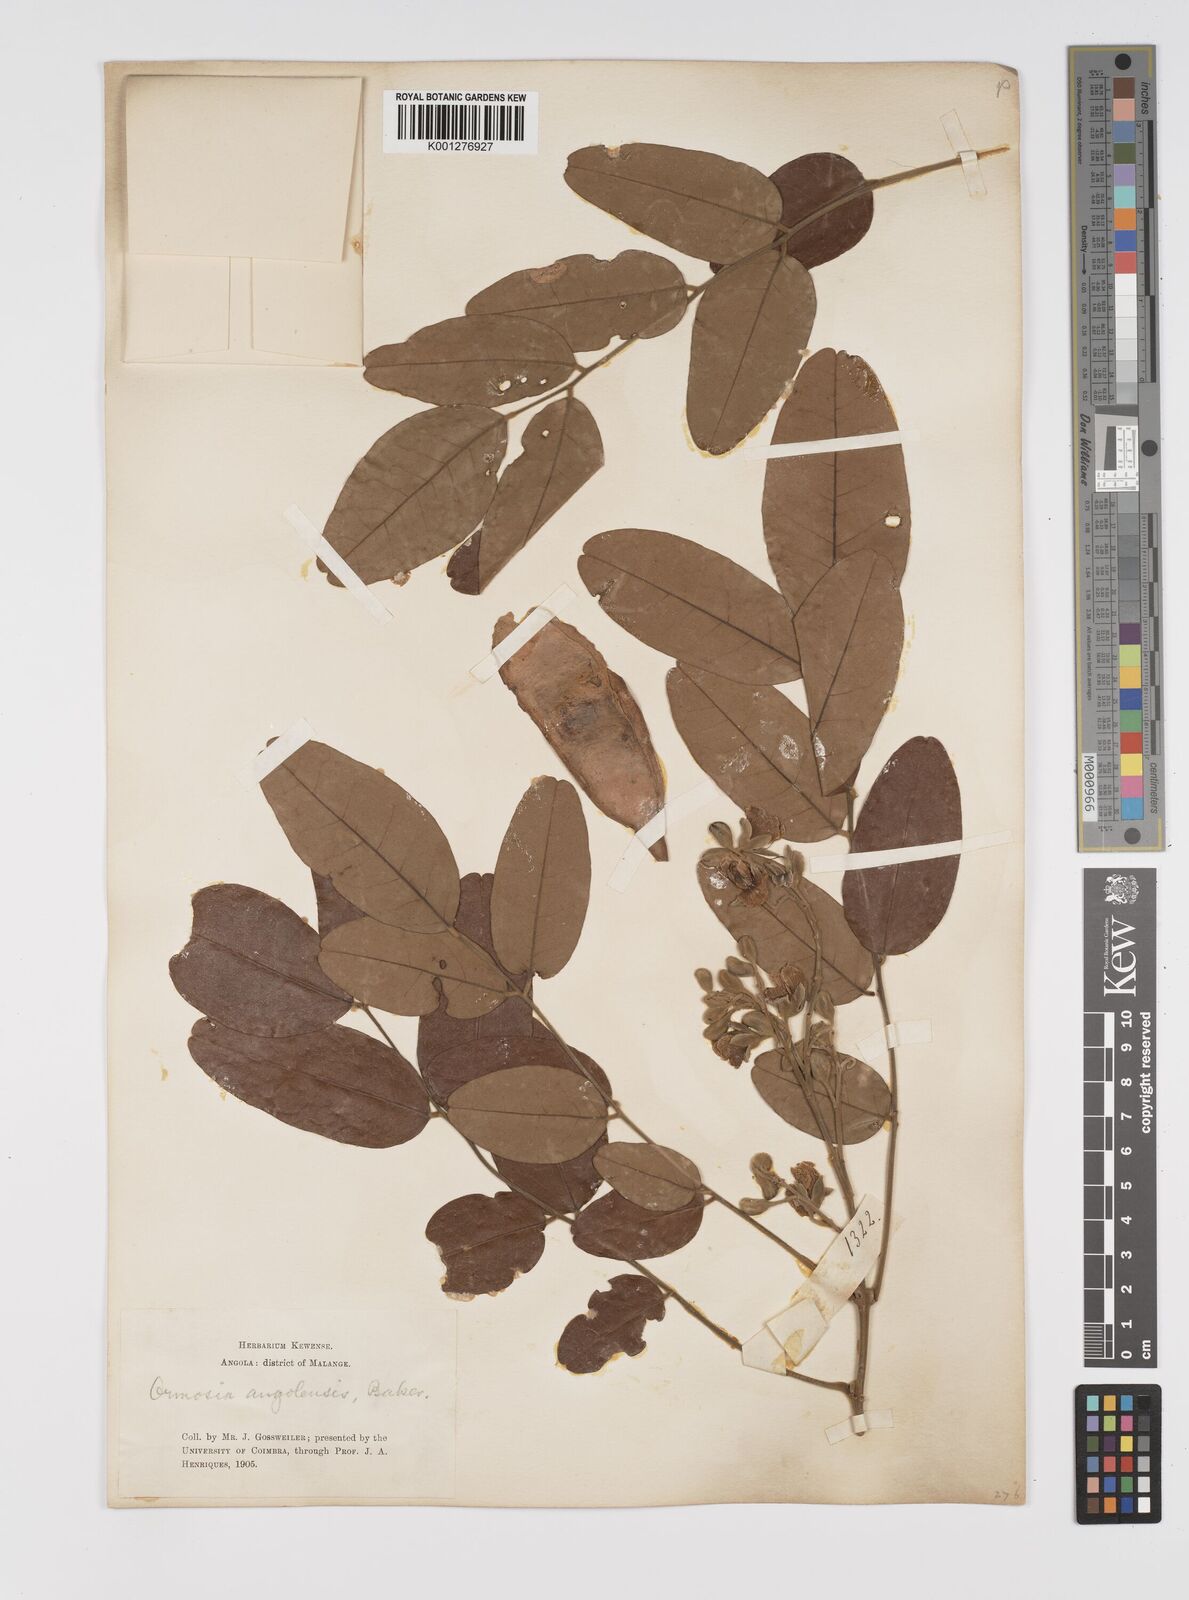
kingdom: Plantae
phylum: Tracheophyta
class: Magnoliopsida
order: Fabales
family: Fabaceae
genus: Pericopsis
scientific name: Pericopsis angolensis
